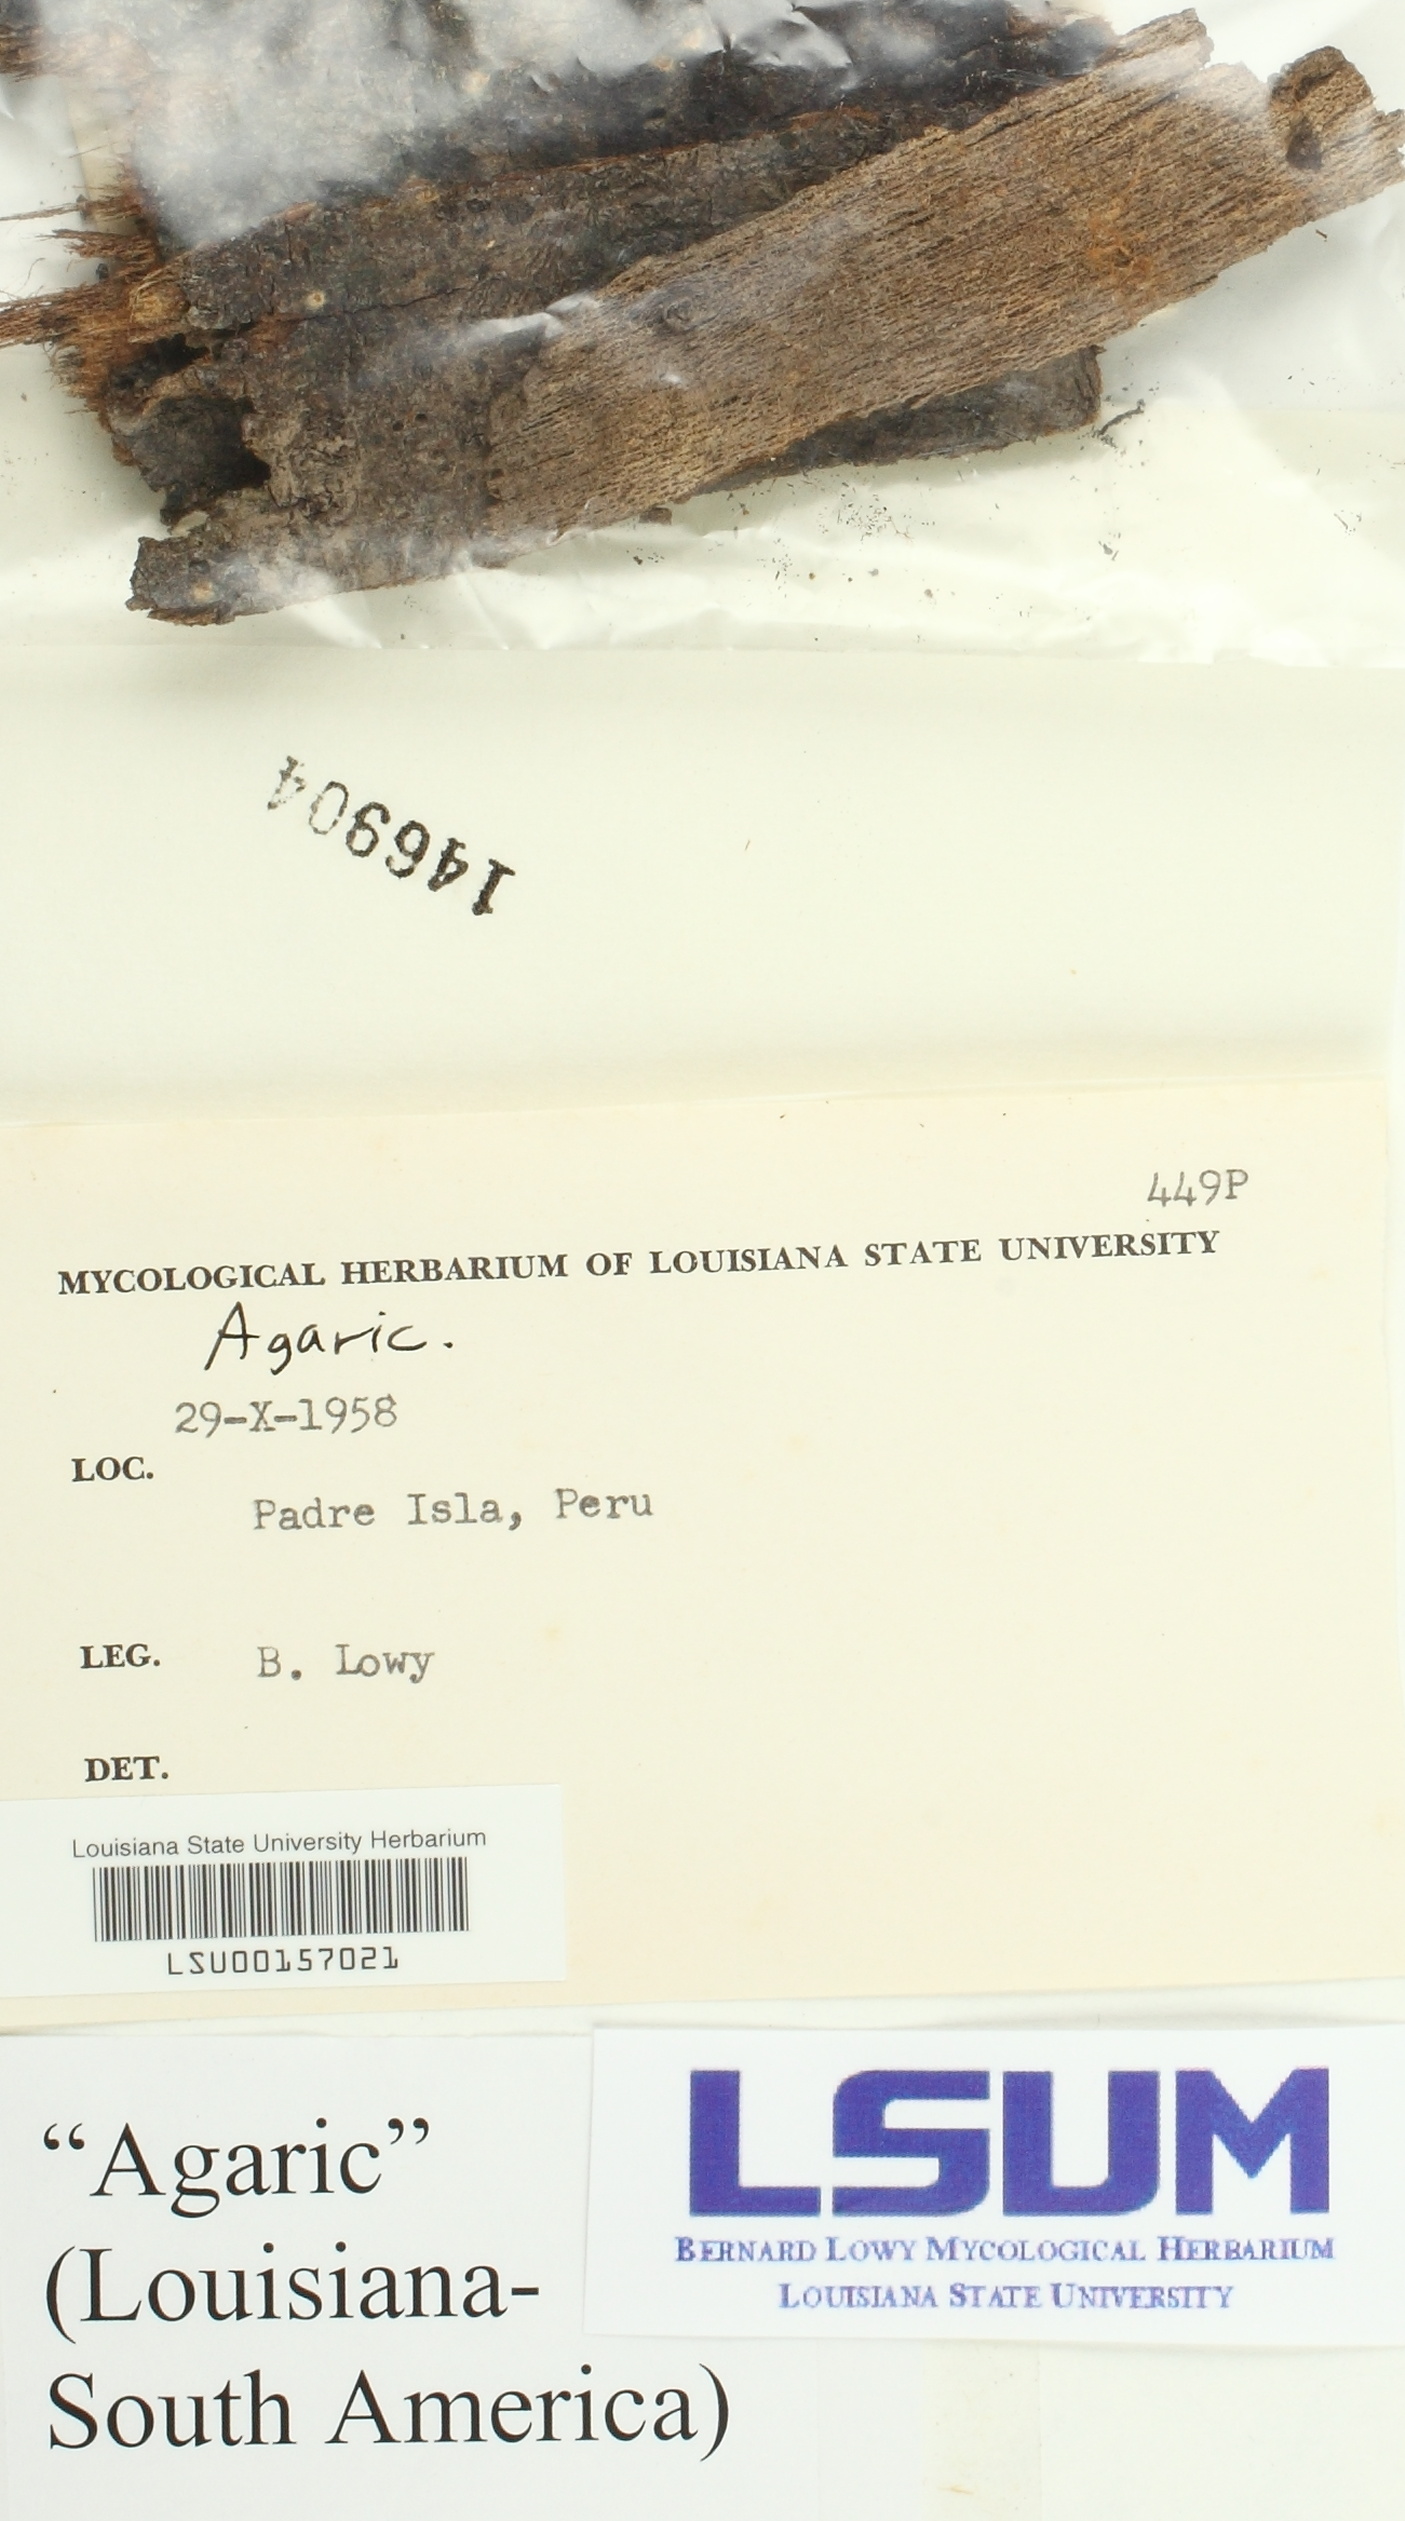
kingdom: Fungi
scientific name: Fungi
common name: Fungi
